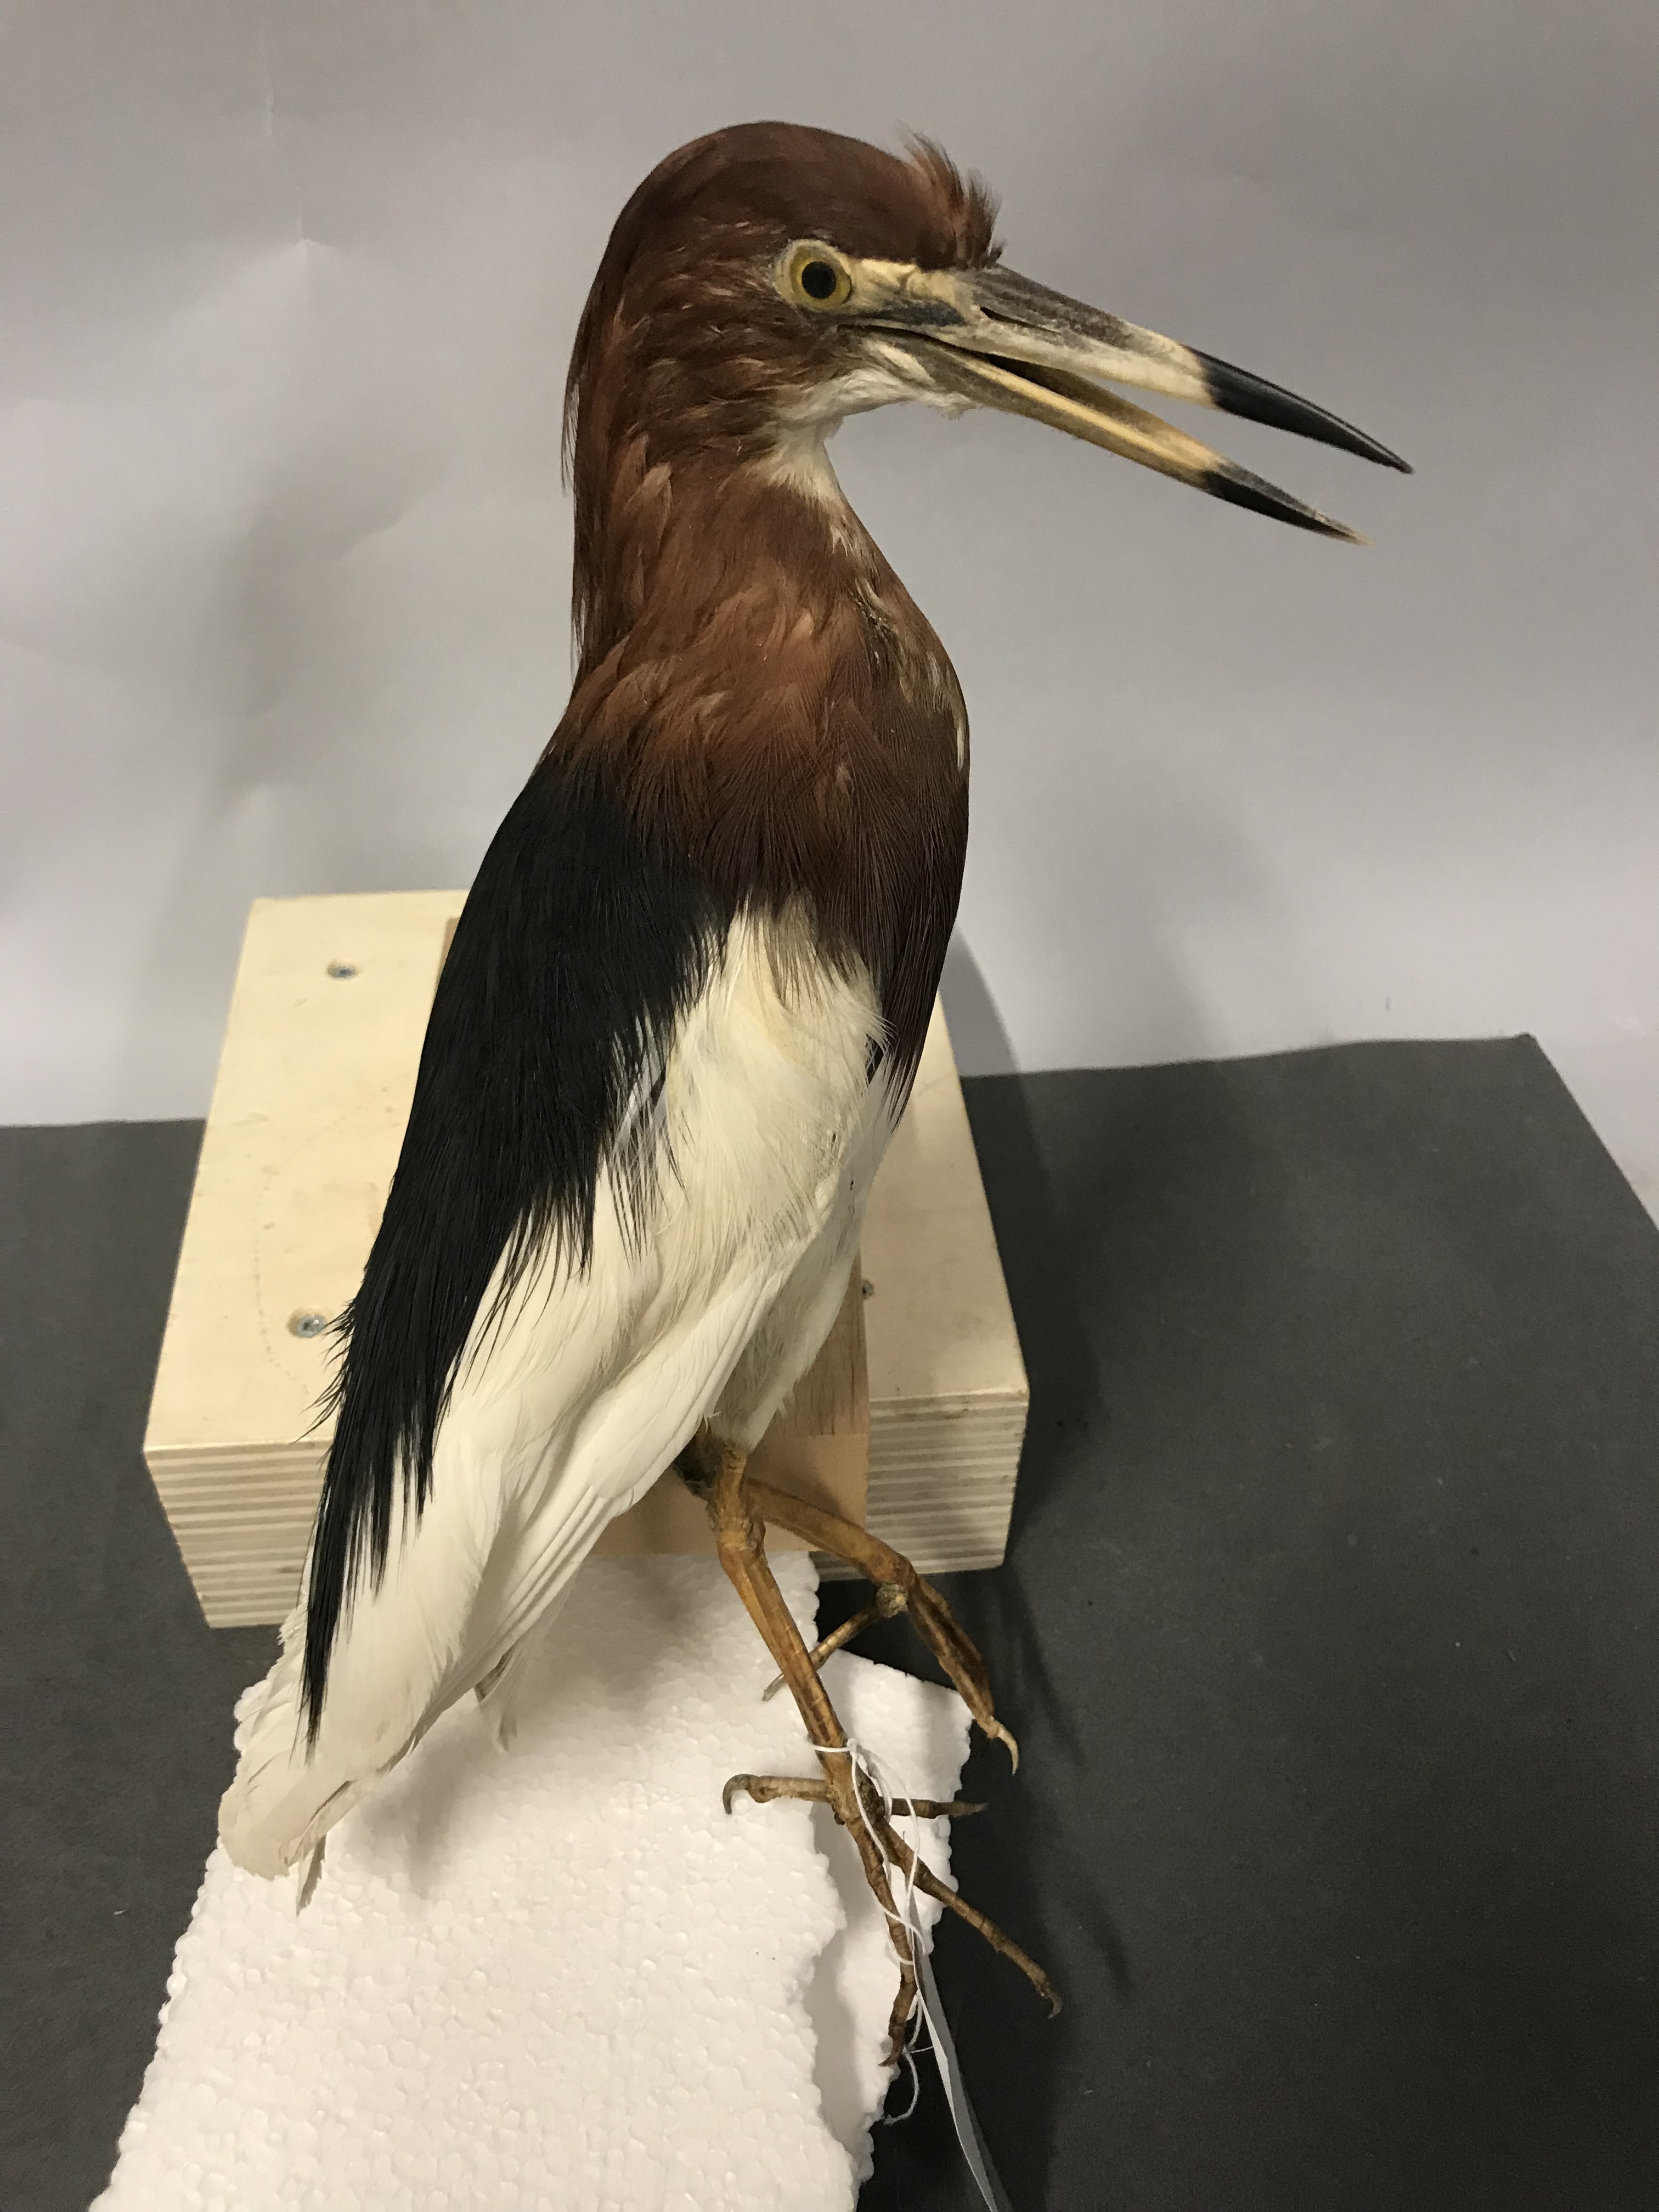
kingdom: Animalia
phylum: Chordata
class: Aves
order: Pelecaniformes
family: Ardeidae
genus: Ardeola
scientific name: Ardeola bacchus
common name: Chinese pond heron
